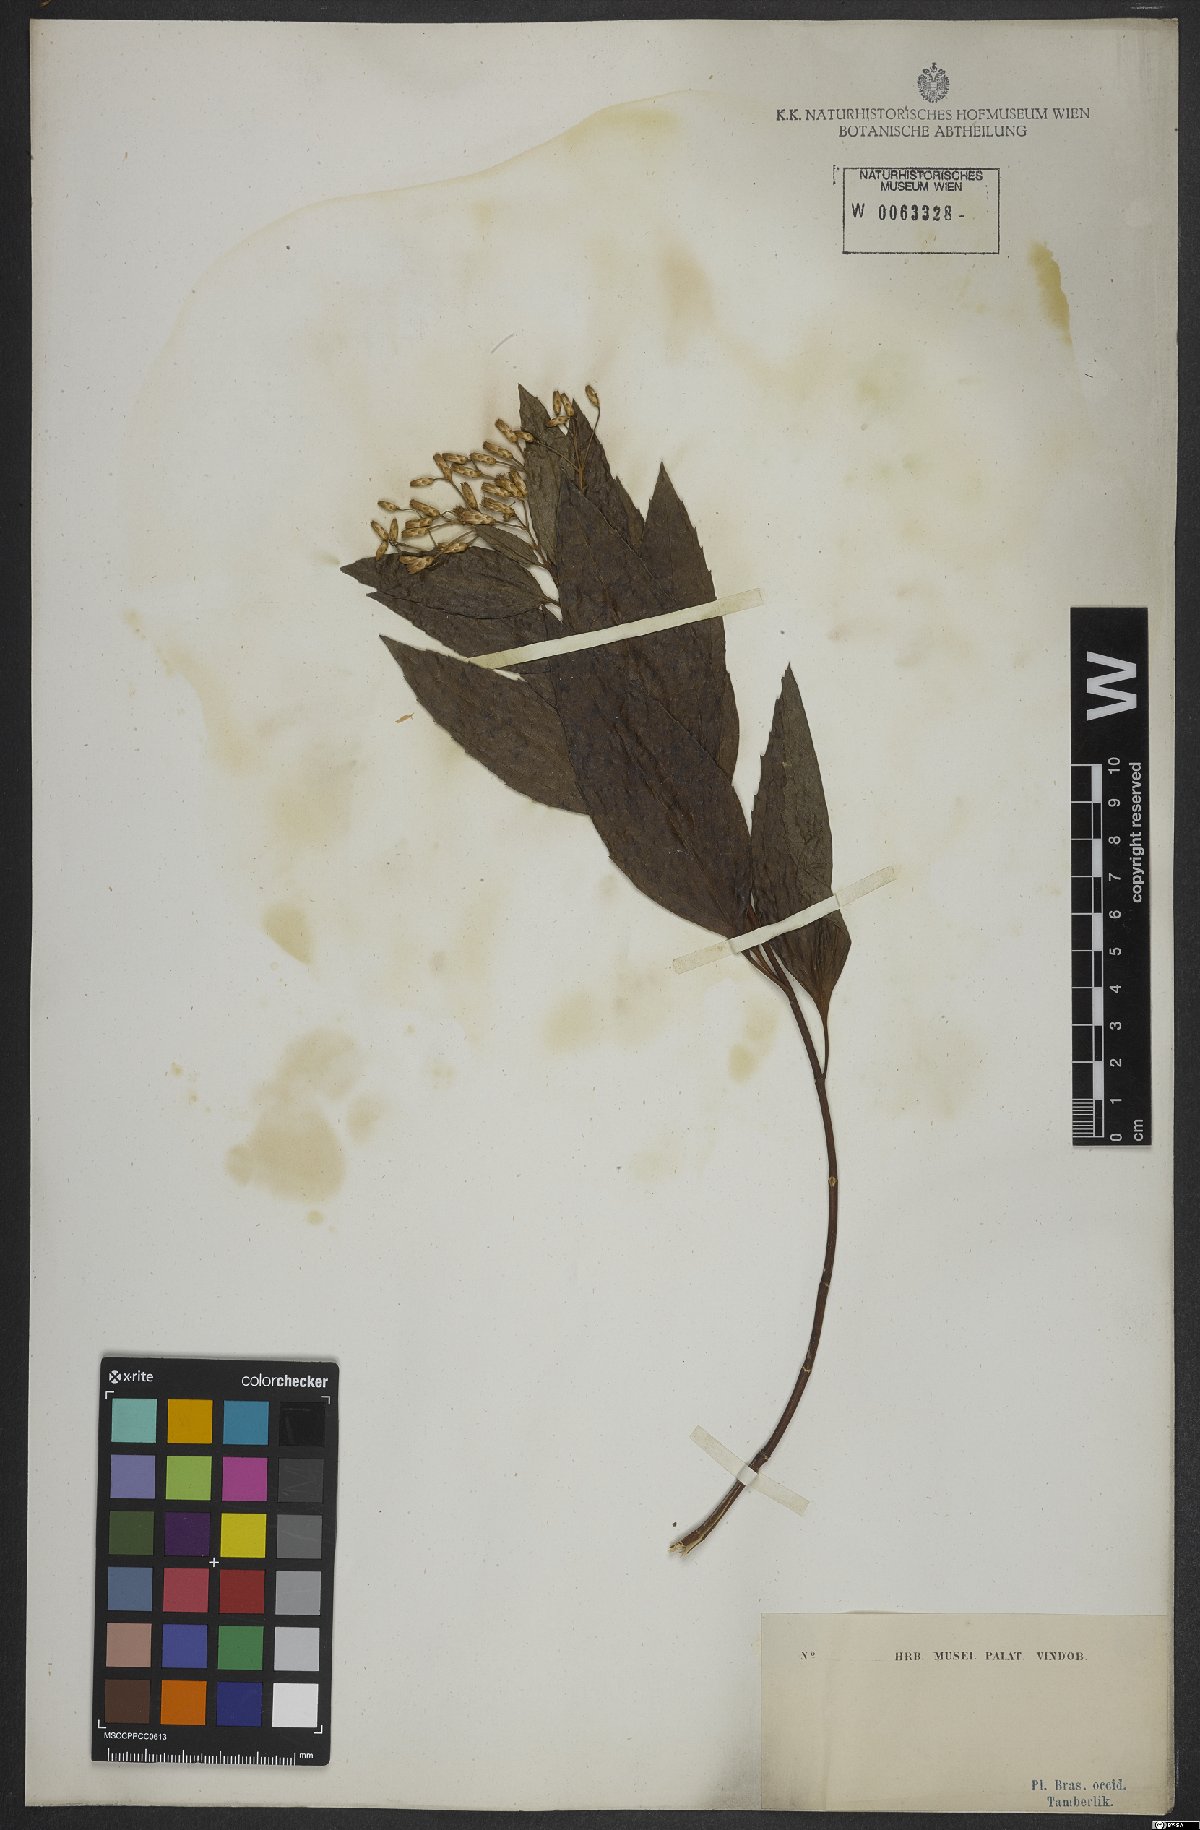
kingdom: Plantae
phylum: Tracheophyta
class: Magnoliopsida
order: Asterales
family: Asteraceae
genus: Eupatorium
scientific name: Eupatorium laevigatum
